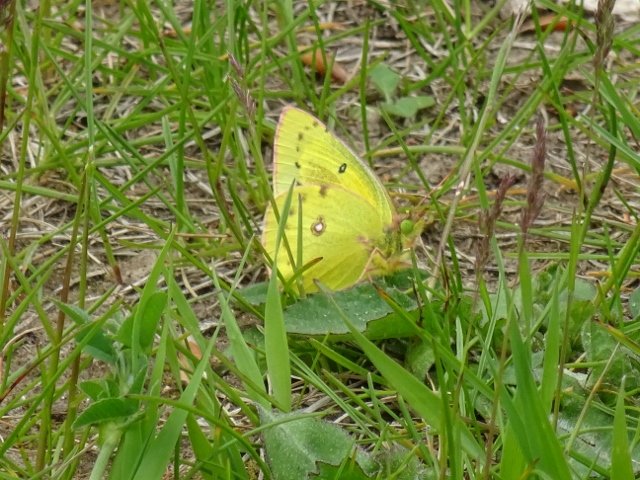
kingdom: Animalia
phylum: Arthropoda
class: Insecta
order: Lepidoptera
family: Pieridae
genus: Colias
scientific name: Colias philodice
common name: Clouded Sulphur
